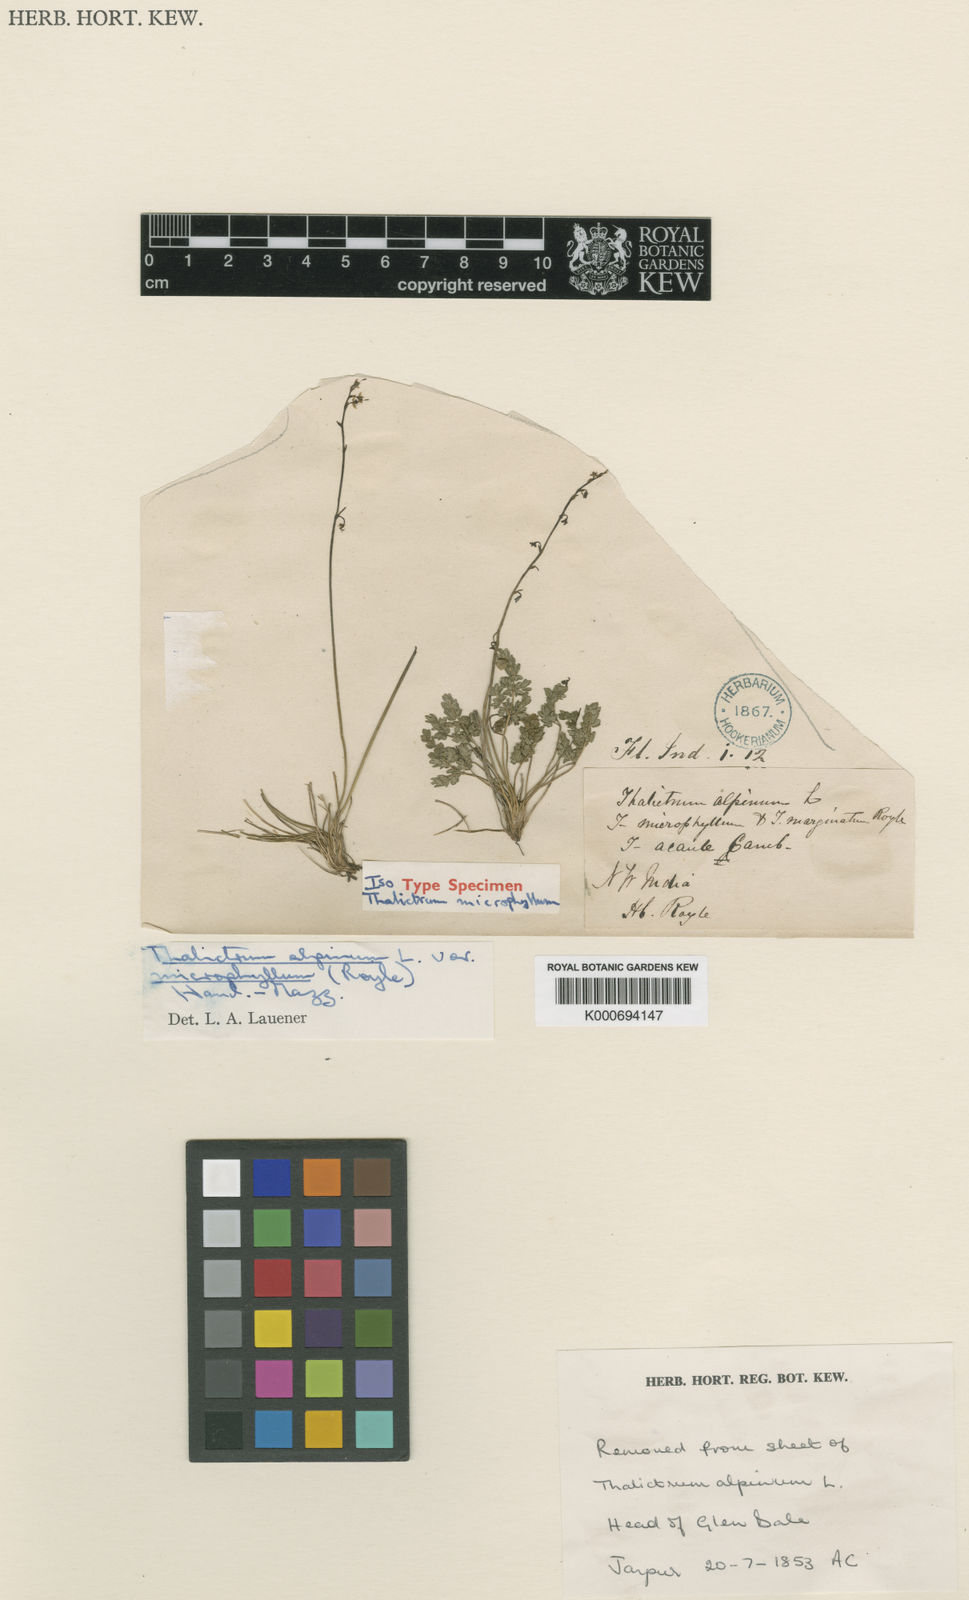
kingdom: Plantae
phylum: Tracheophyta
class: Magnoliopsida
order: Ranunculales
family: Ranunculaceae
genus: Thalictrum
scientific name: Thalictrum alpinum
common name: Alpine meadow-rue
